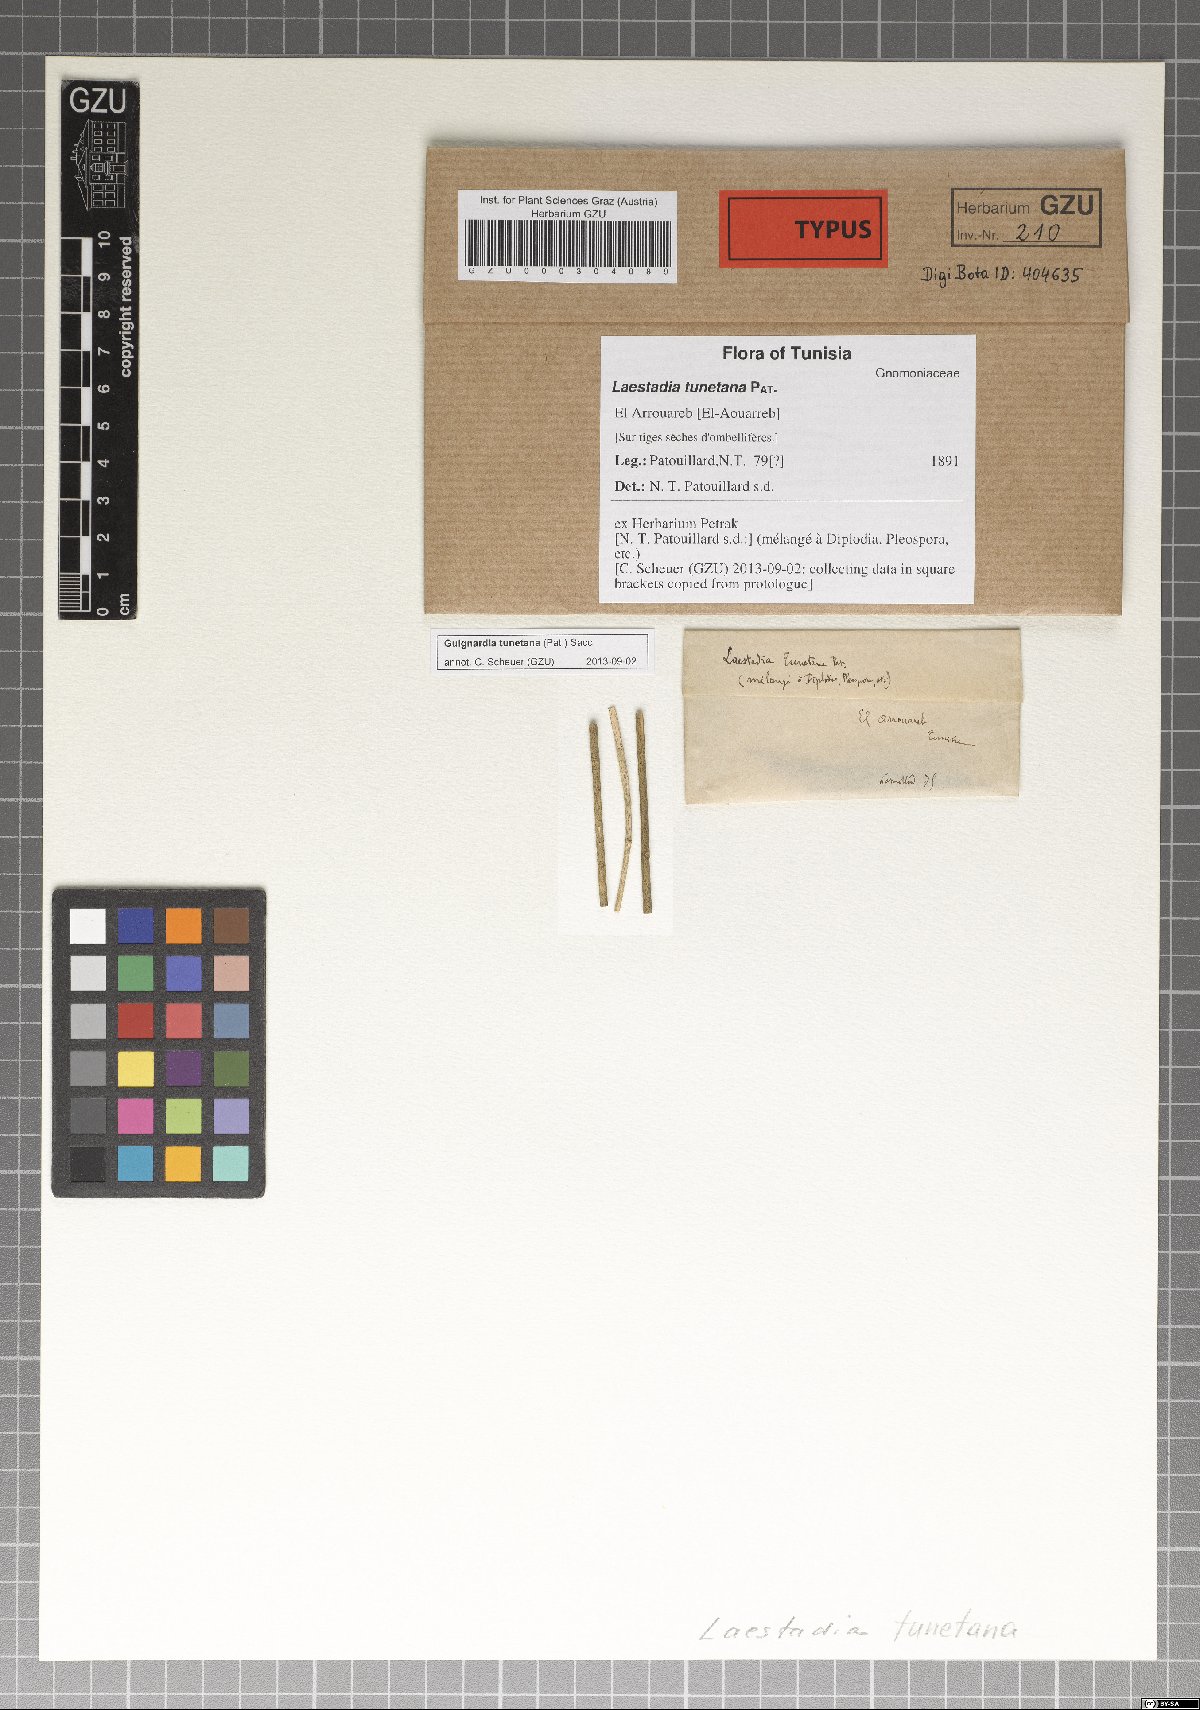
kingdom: Fungi
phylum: Ascomycota
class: Dothideomycetes
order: Botryosphaeriales
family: Phyllostictaceae
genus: Guignardia
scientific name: Guignardia tunetana
